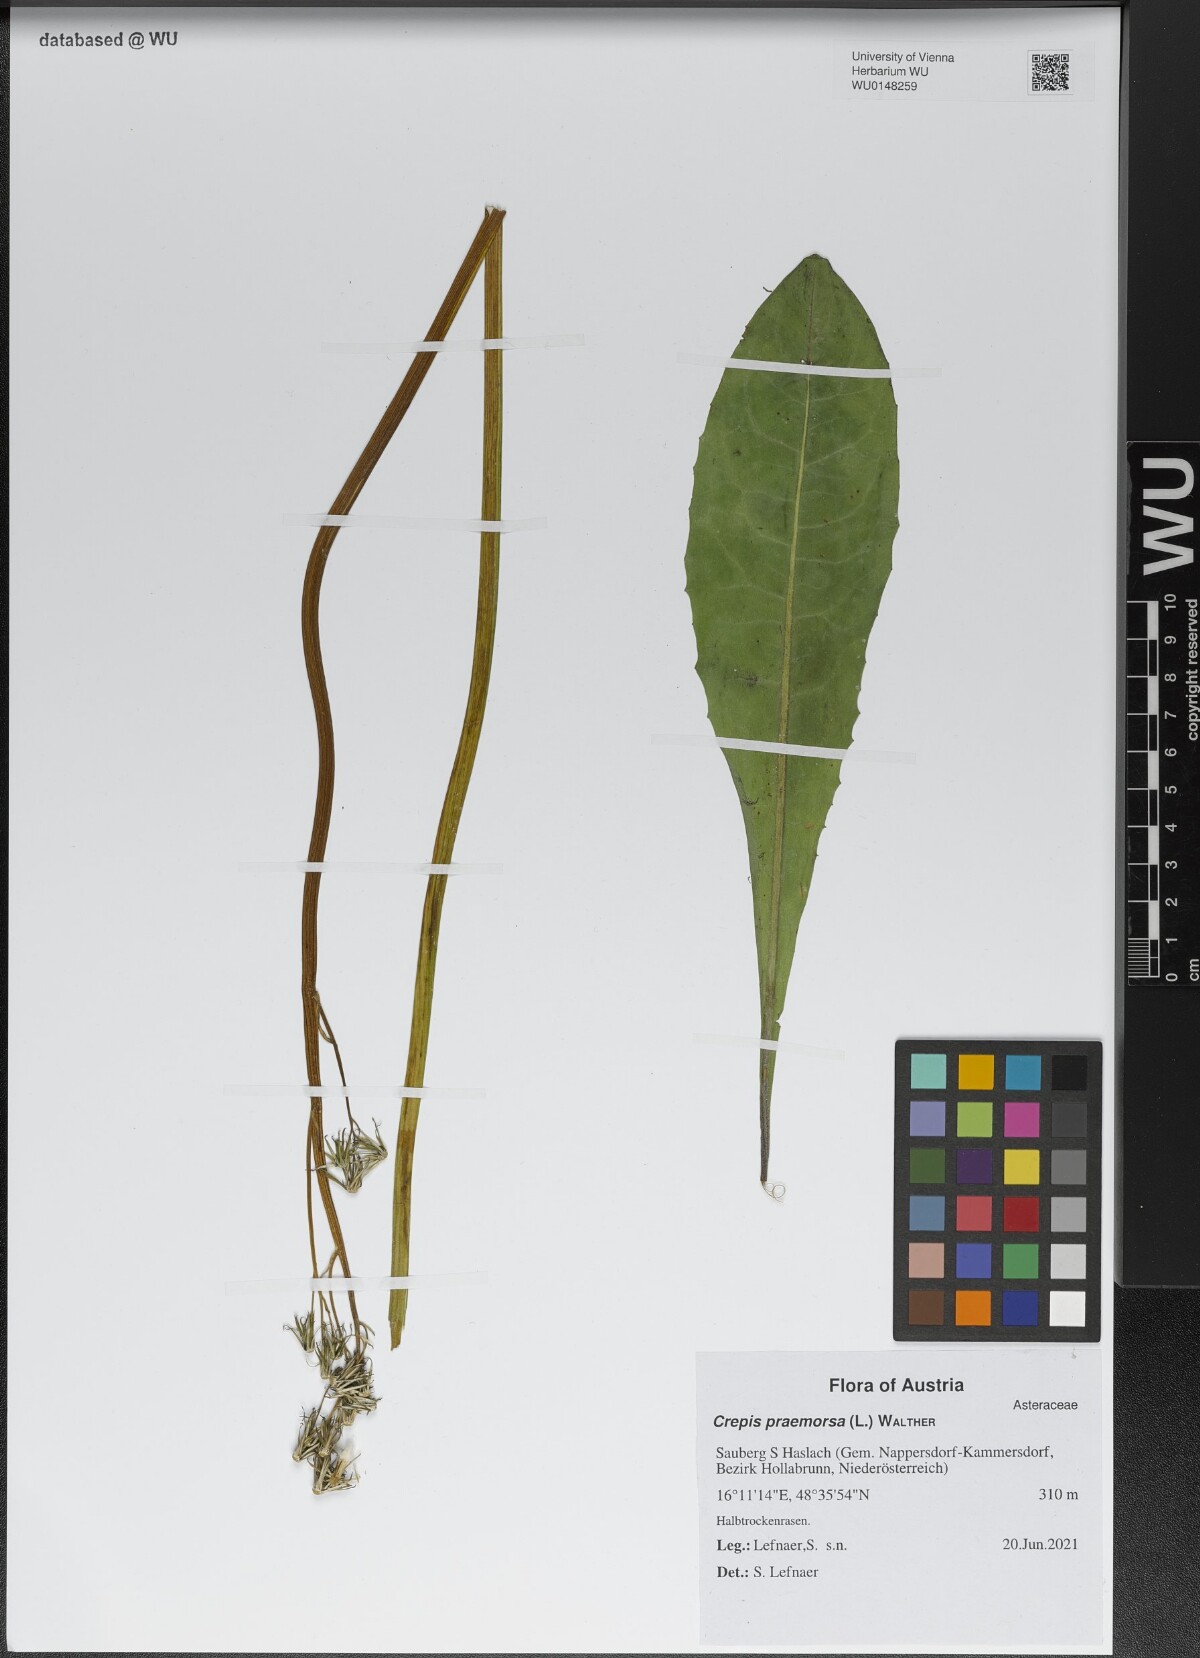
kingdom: Plantae
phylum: Tracheophyta
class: Magnoliopsida
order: Asterales
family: Asteraceae
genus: Crepis
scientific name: Crepis praemorsa
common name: Leafless hawk's-beard
